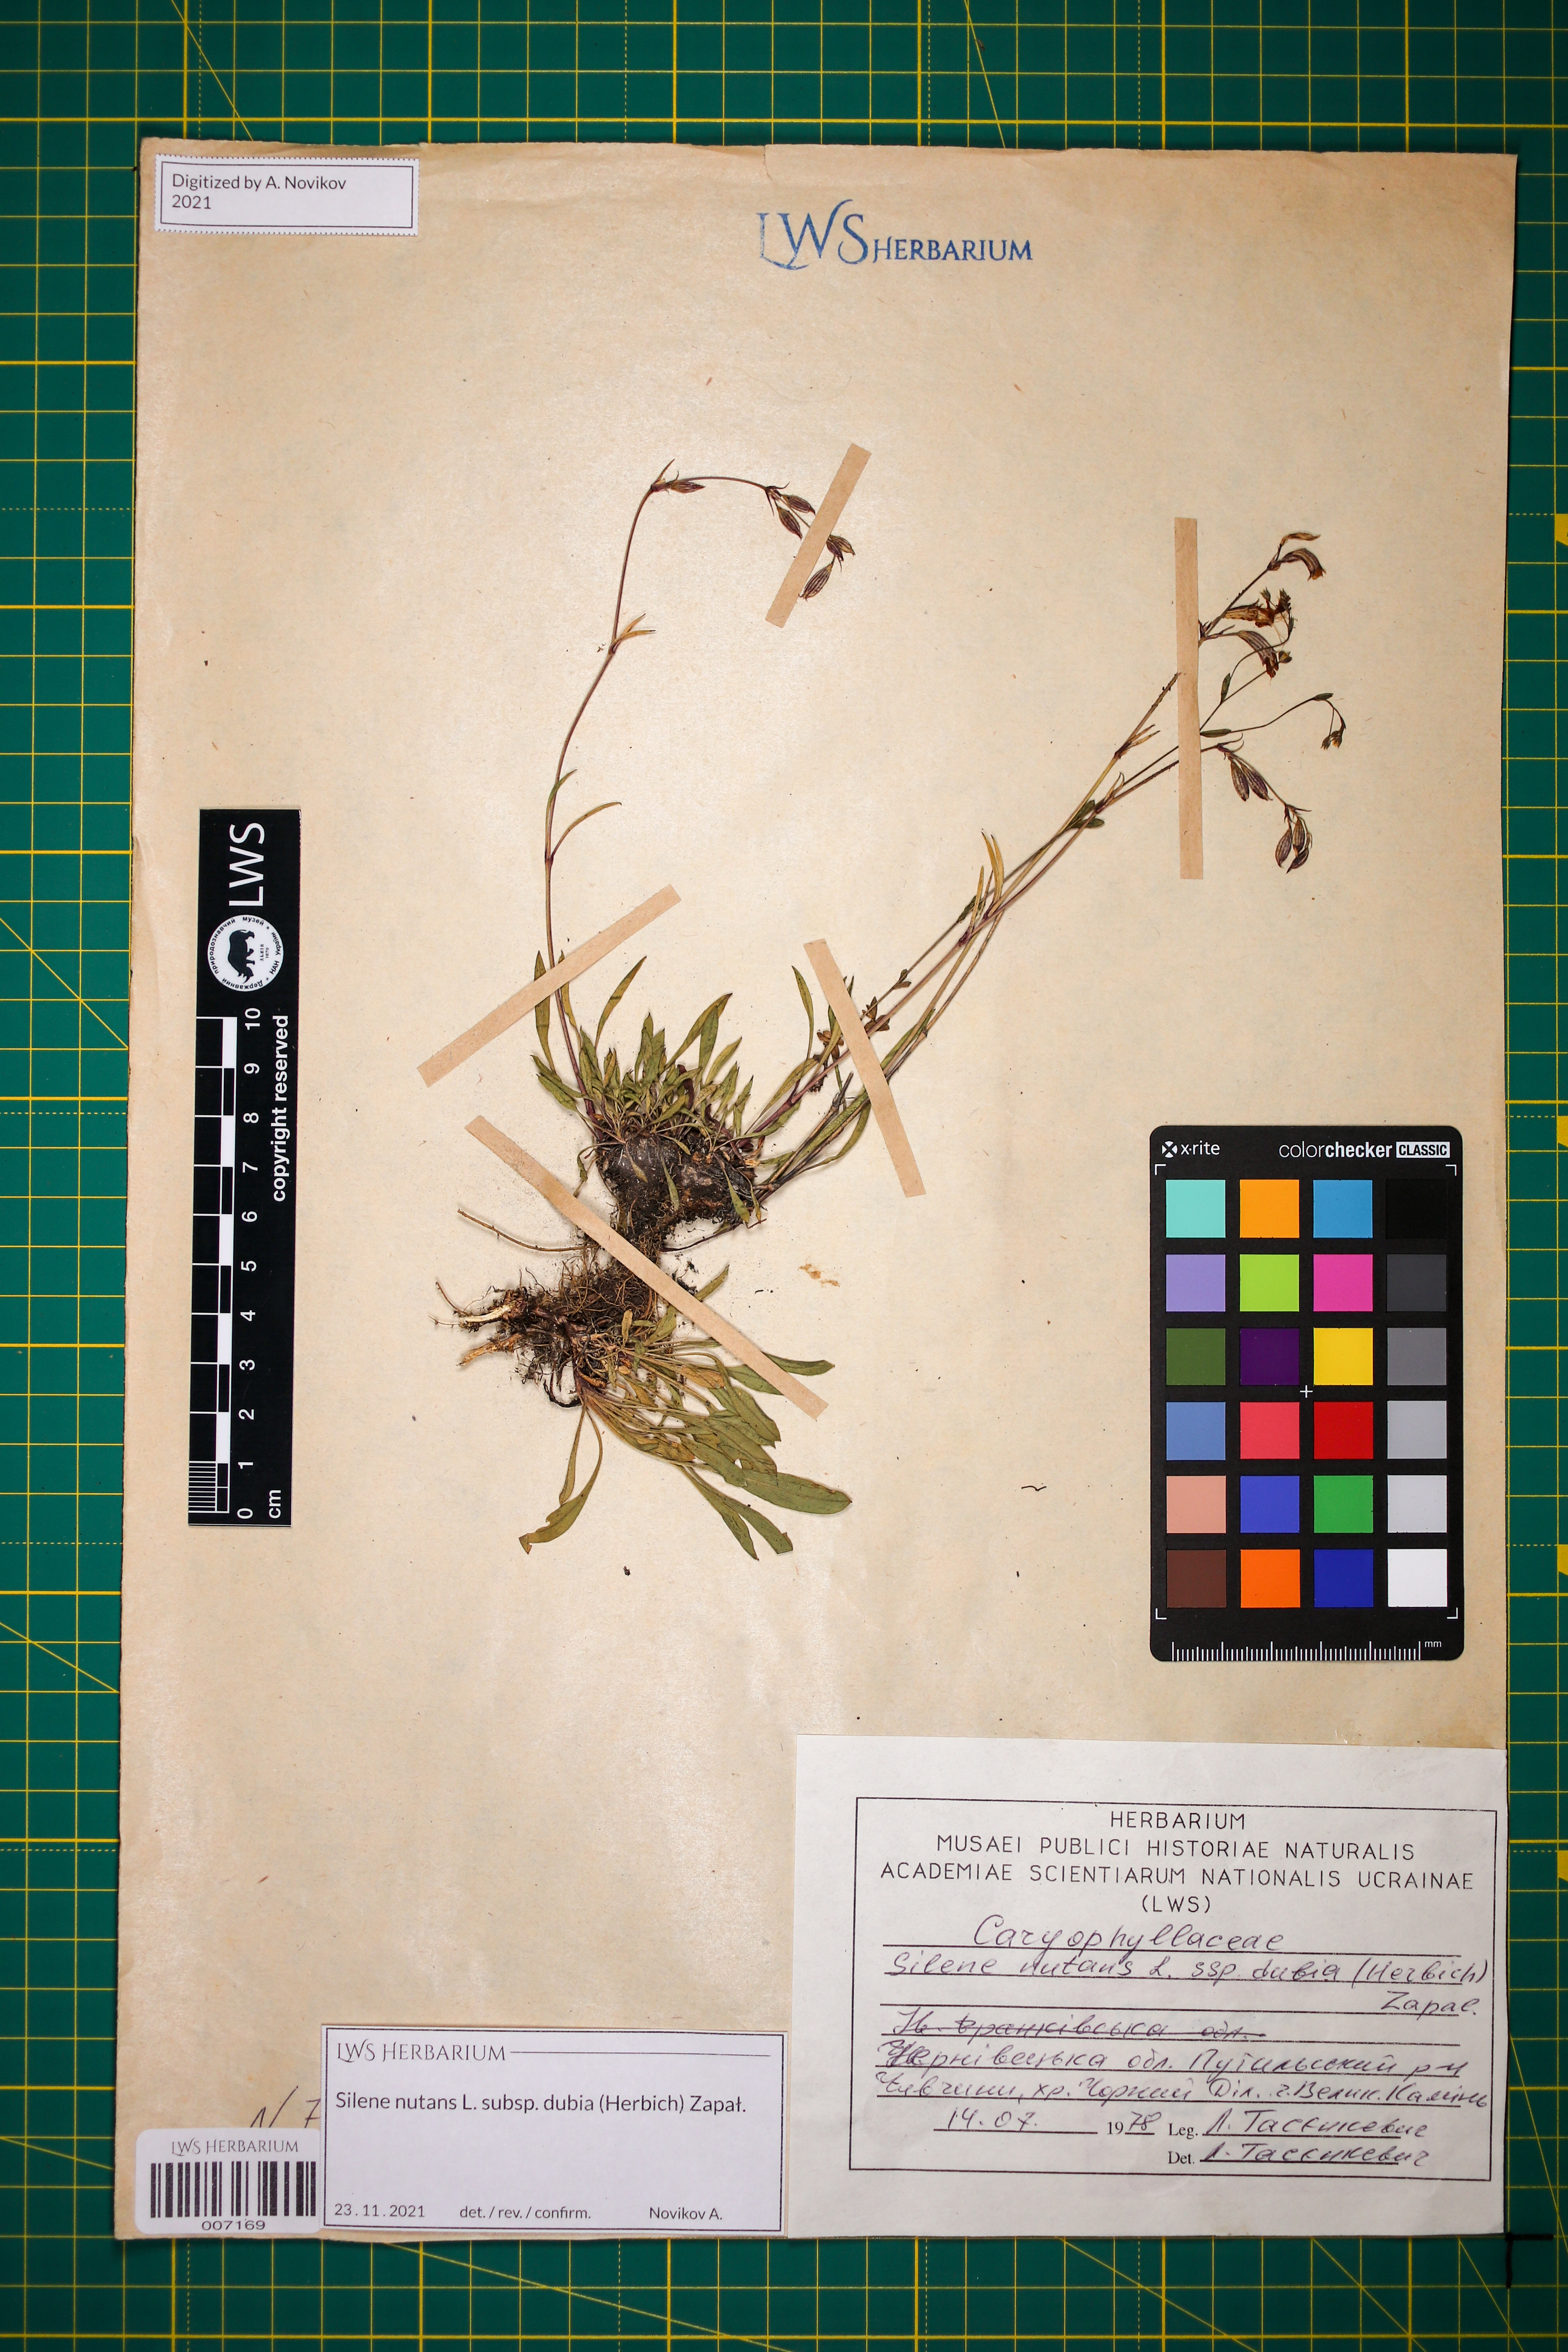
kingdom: Plantae
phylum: Tracheophyta
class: Magnoliopsida
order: Caryophyllales
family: Caryophyllaceae
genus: Silene
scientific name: Silene nutans
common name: Nottingham catchfly
